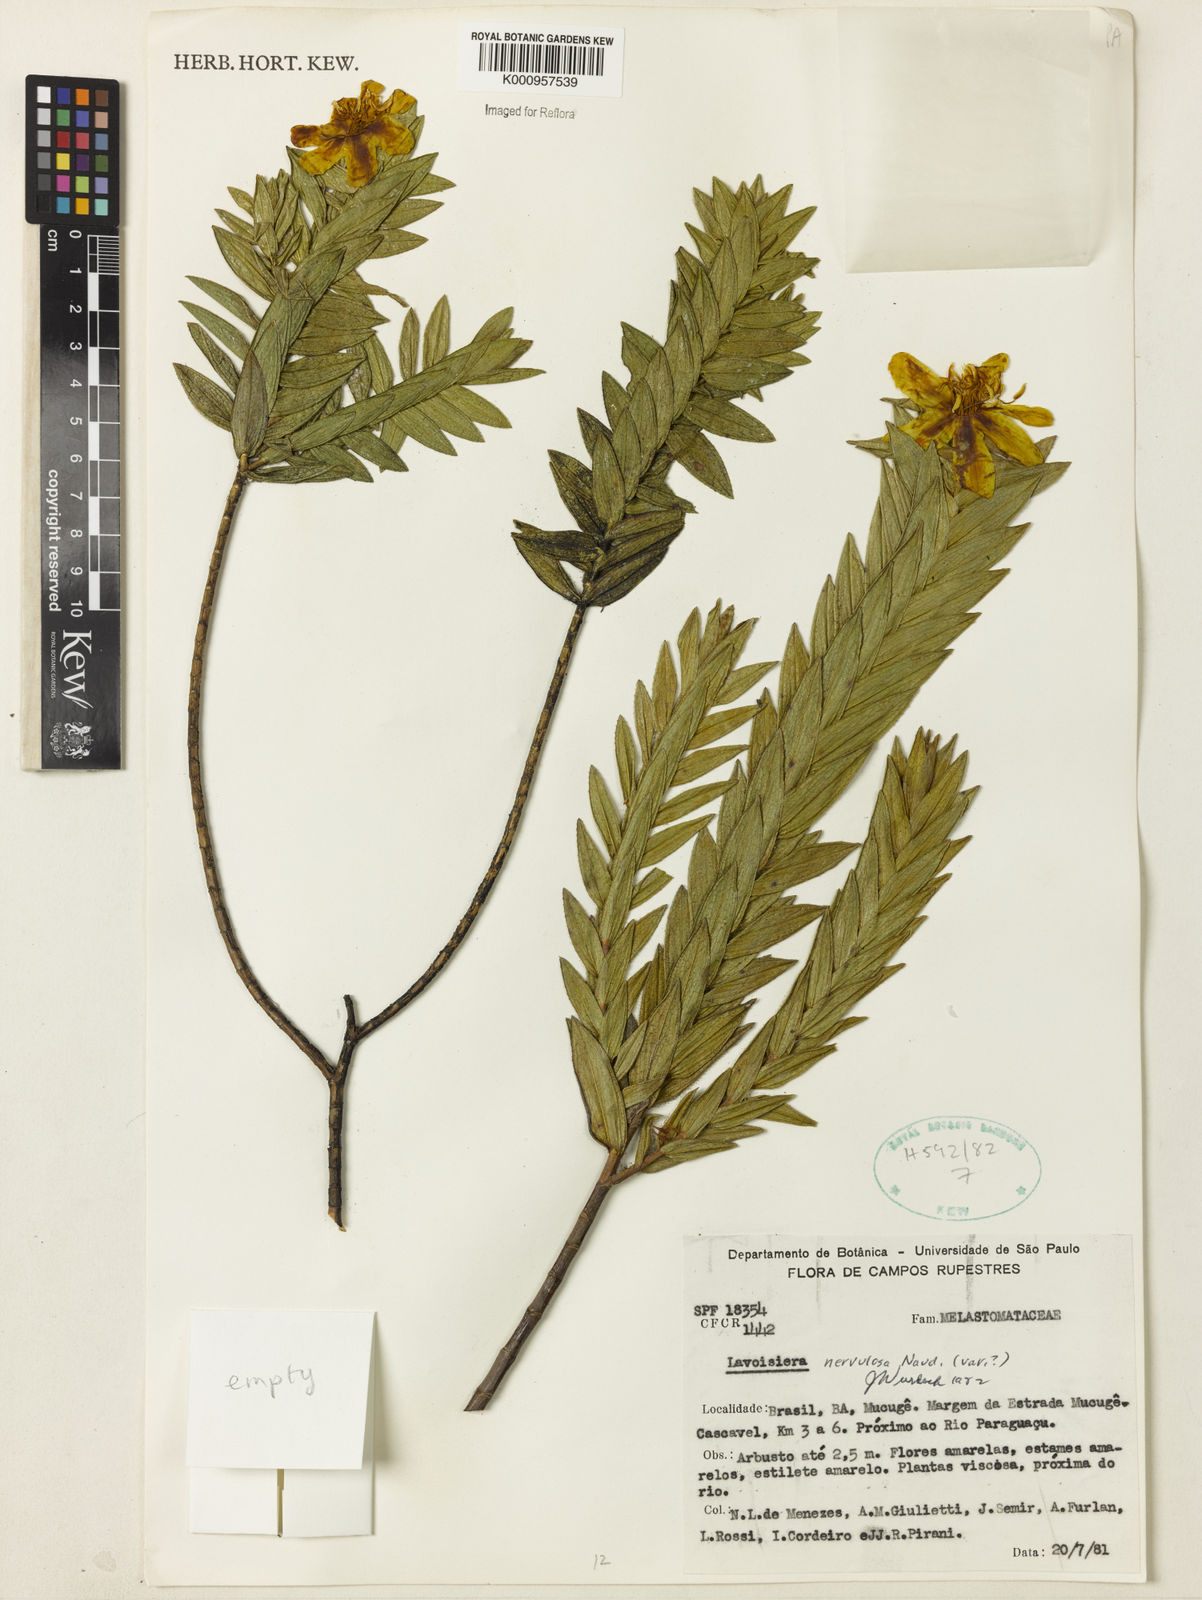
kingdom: Plantae
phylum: Tracheophyta
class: Magnoliopsida
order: Myrtales
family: Melastomataceae
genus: Microlicia
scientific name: Microlicia nervulosa
